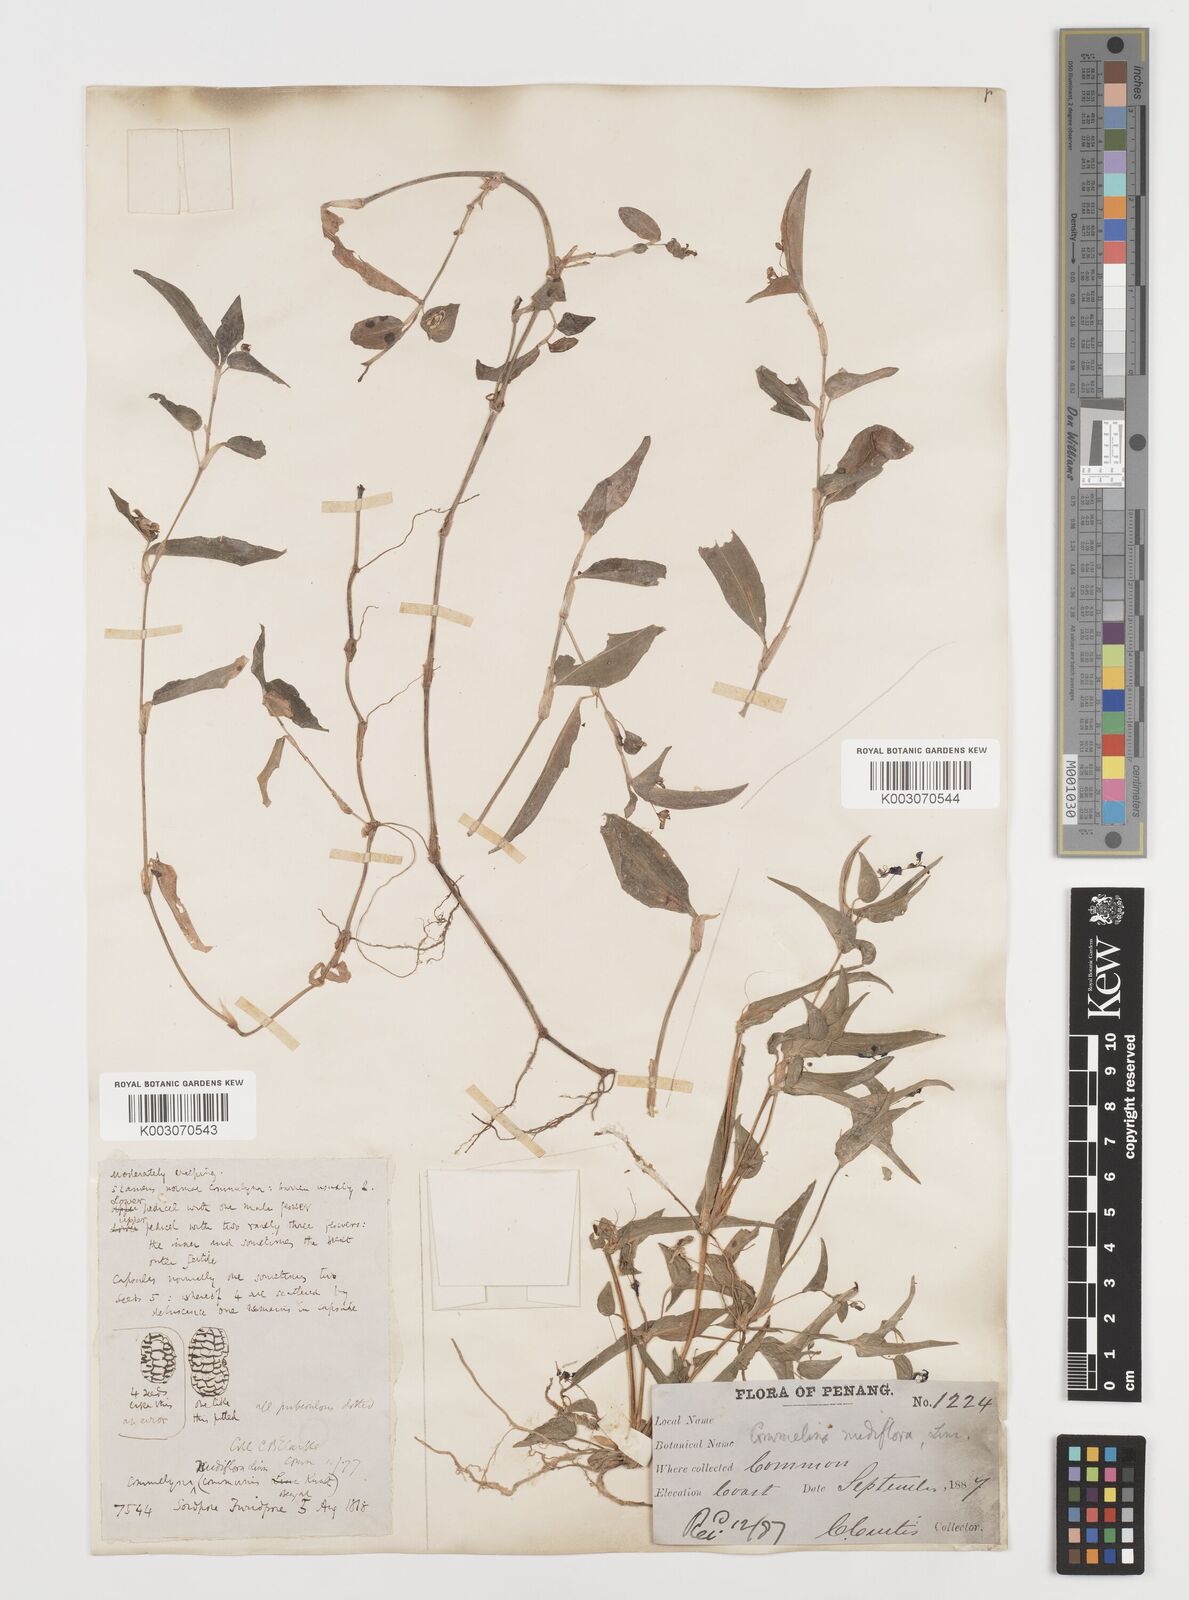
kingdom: Plantae
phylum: Tracheophyta
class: Liliopsida
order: Commelinales
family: Commelinaceae
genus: Commelina
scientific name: Commelina clavata
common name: Willow leaved dayflower
